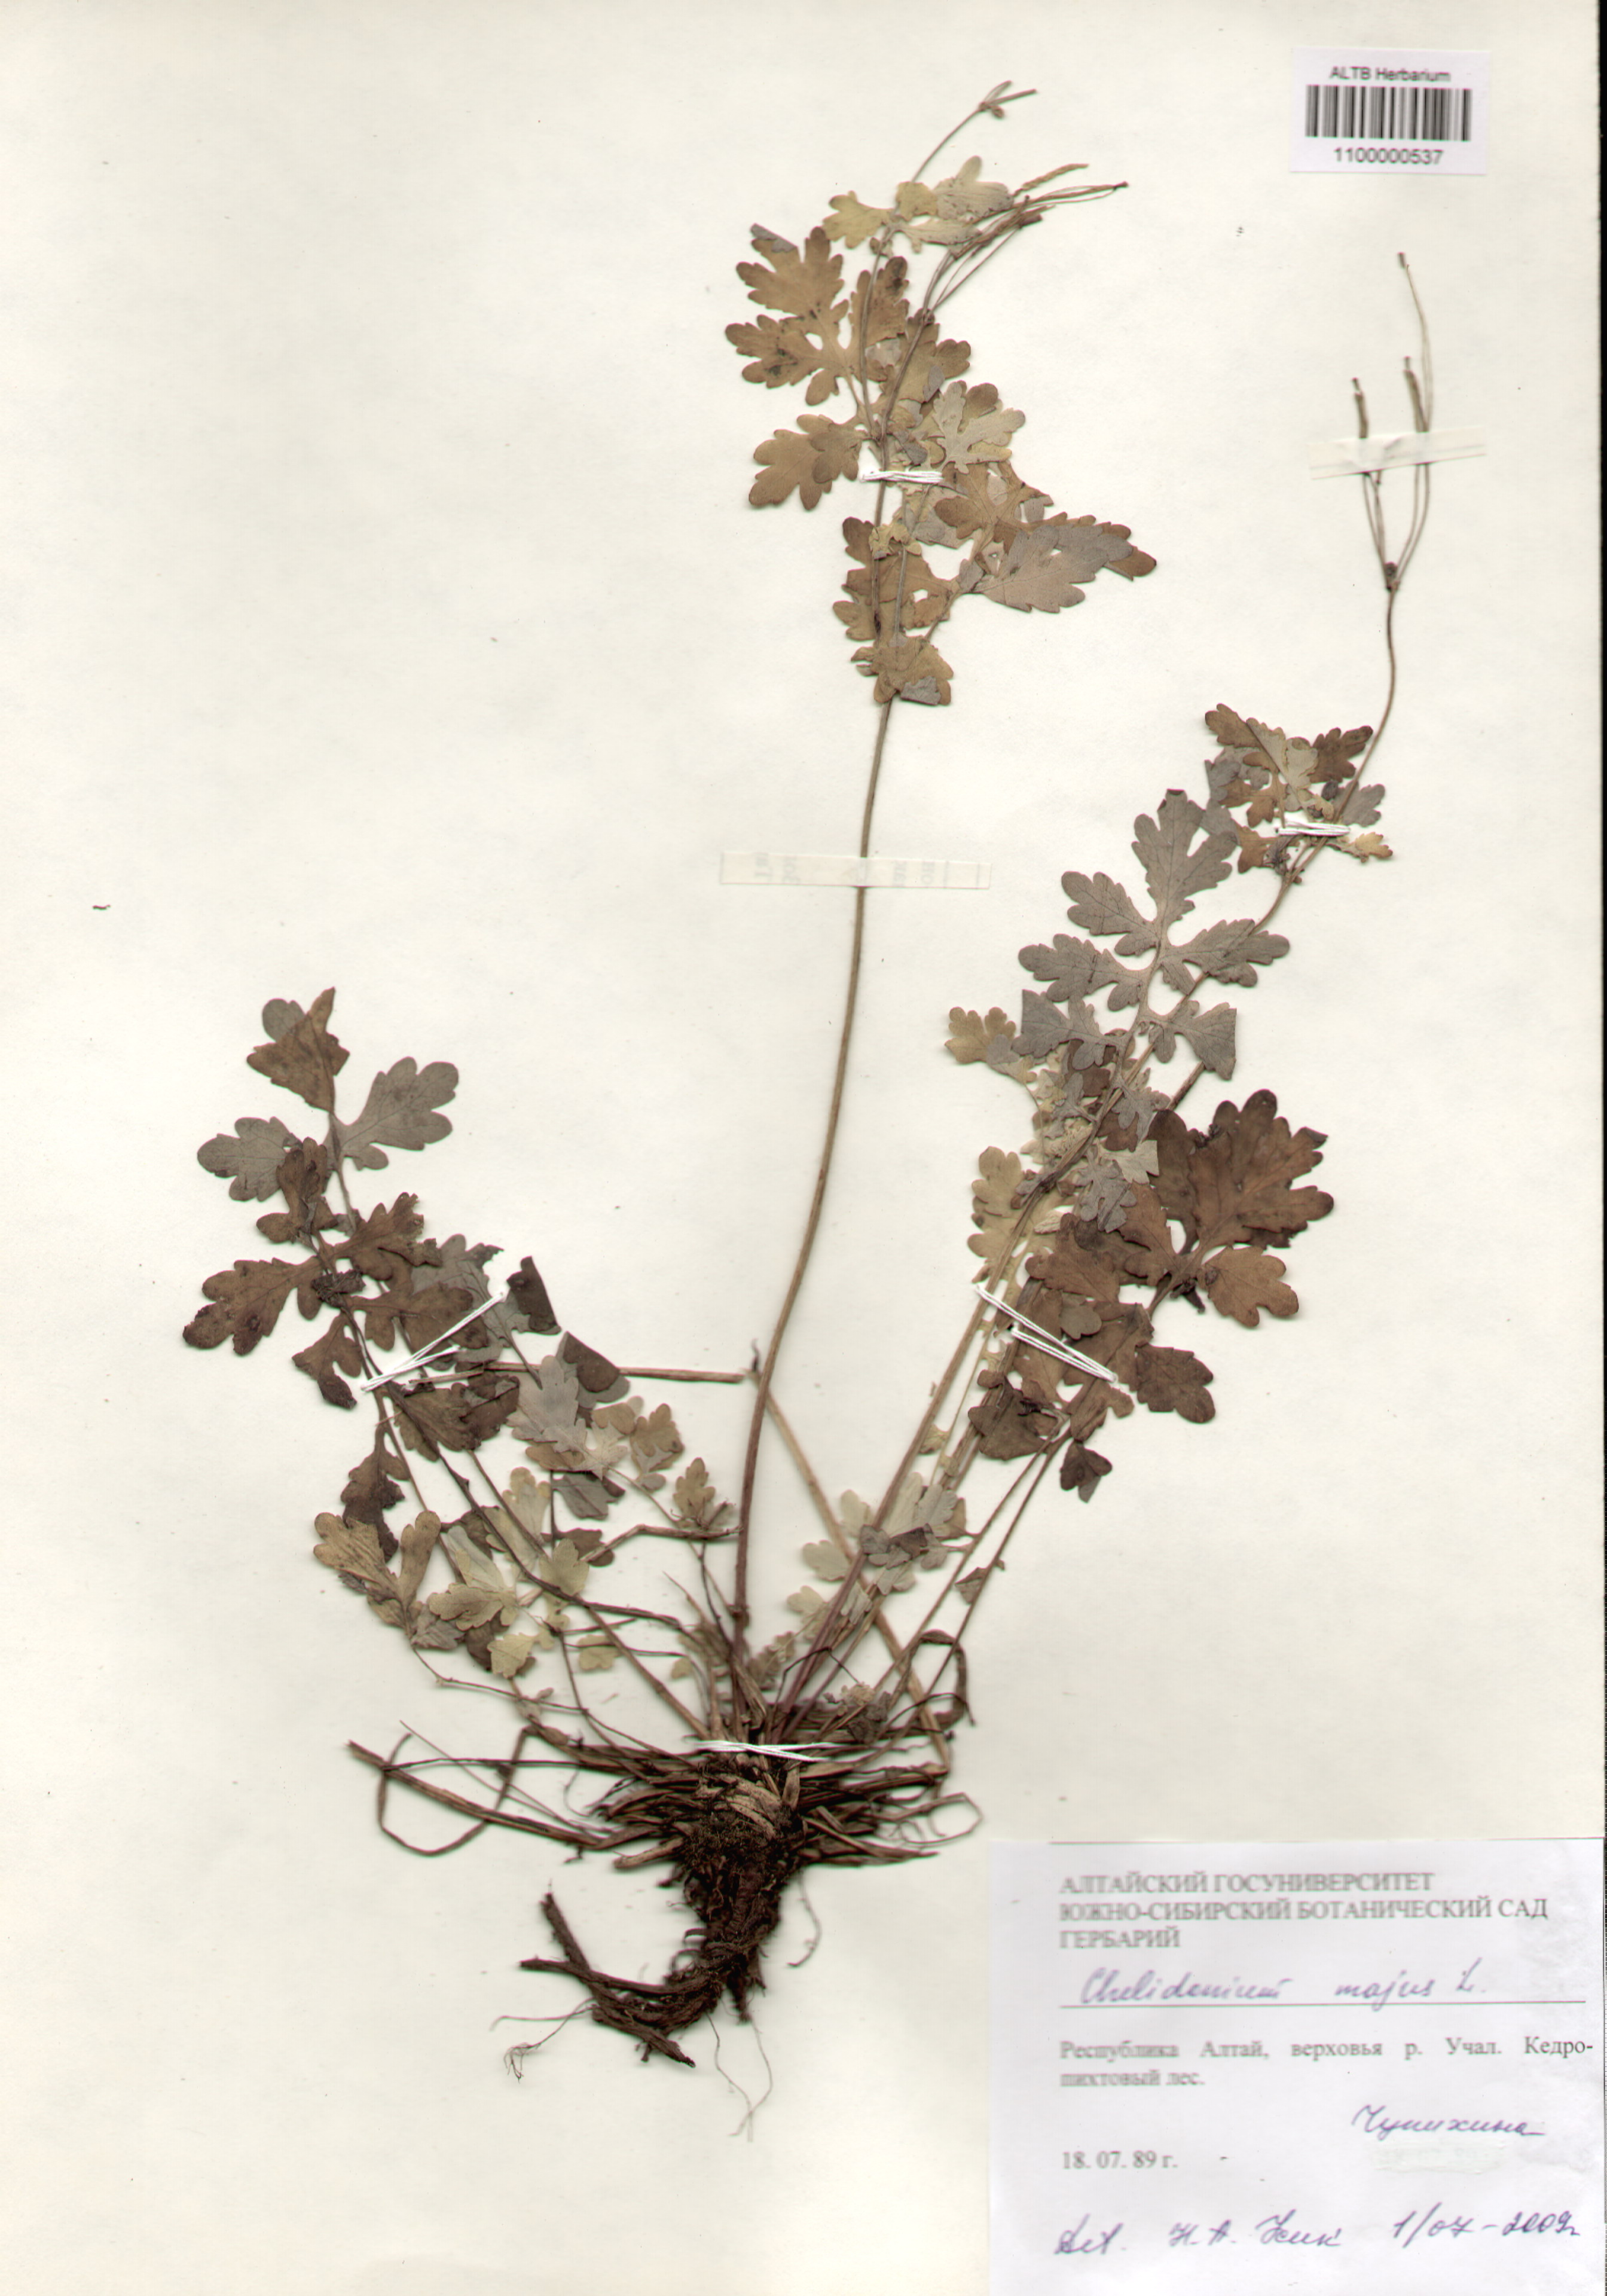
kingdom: Plantae
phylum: Tracheophyta
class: Magnoliopsida
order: Ranunculales
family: Papaveraceae
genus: Chelidonium
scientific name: Chelidonium majus
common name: Greater celandine
